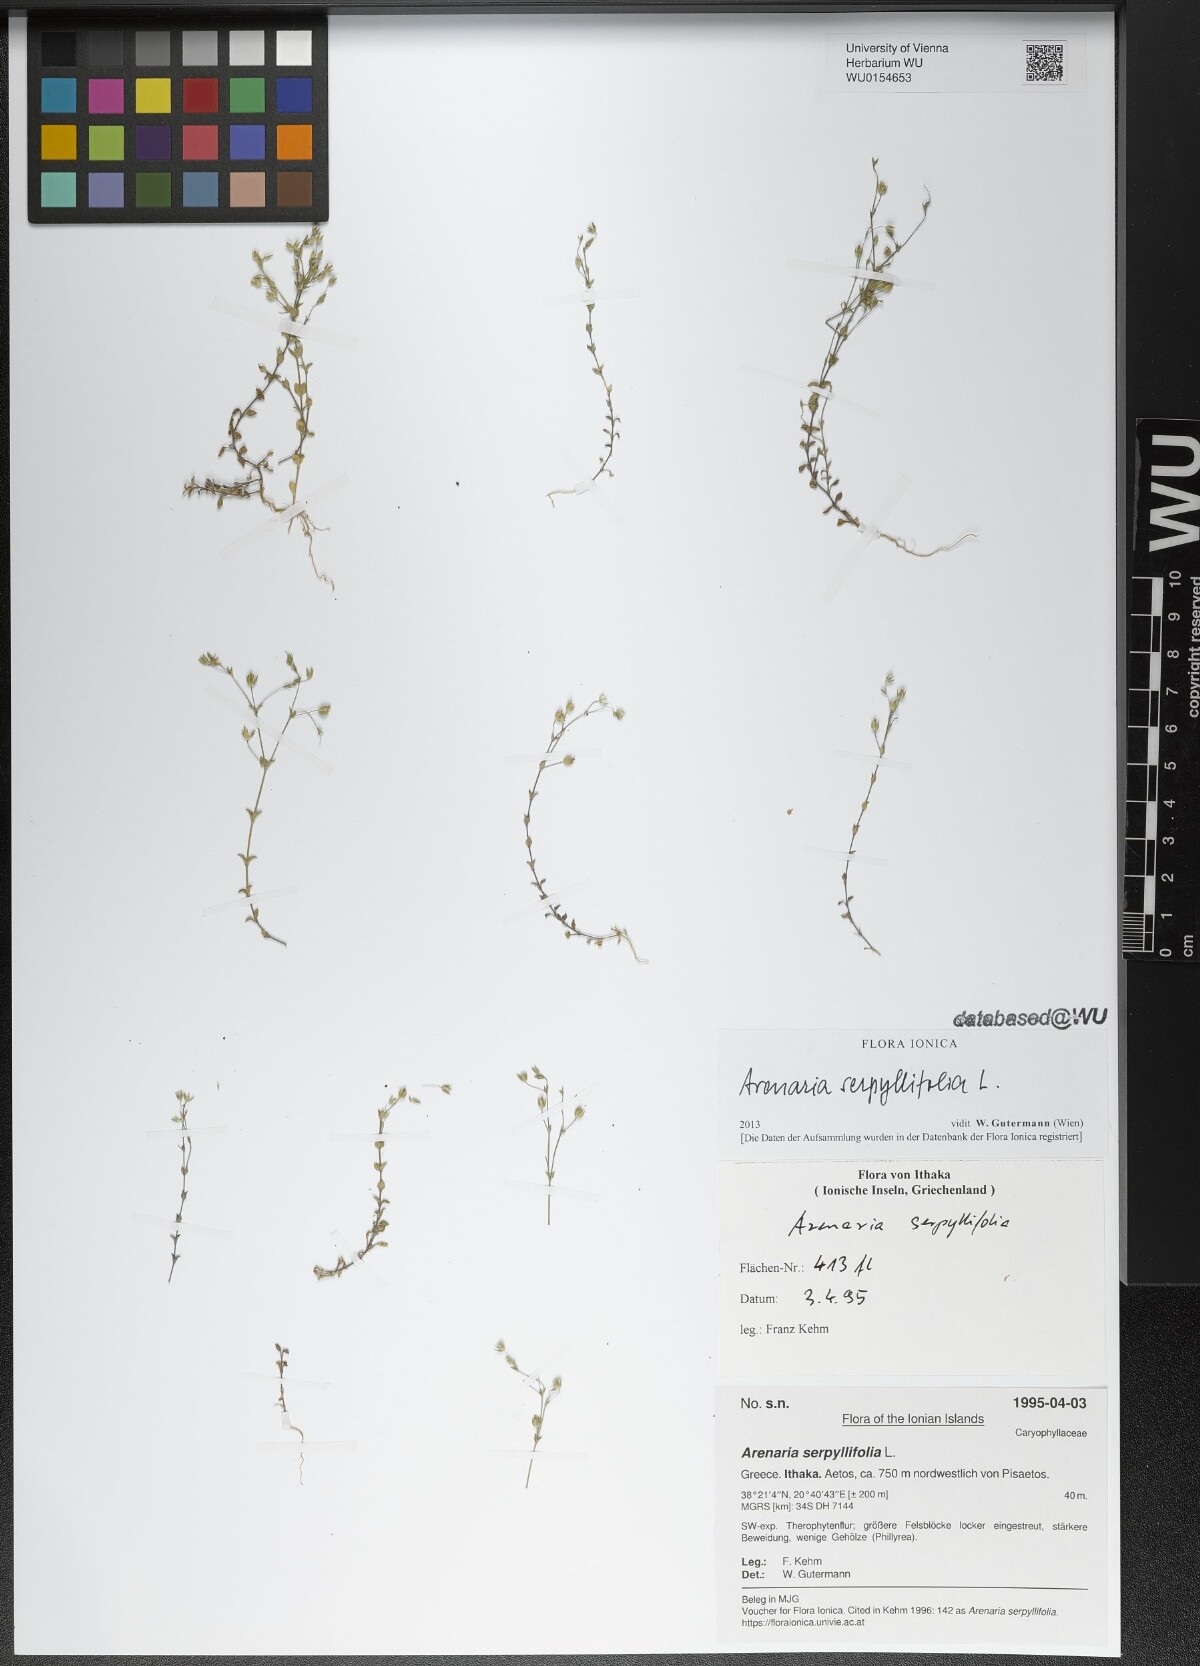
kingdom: Plantae
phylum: Tracheophyta
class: Magnoliopsida
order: Caryophyllales
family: Caryophyllaceae
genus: Arenaria
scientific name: Arenaria serpyllifolia
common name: Thyme-leaved sandwort
